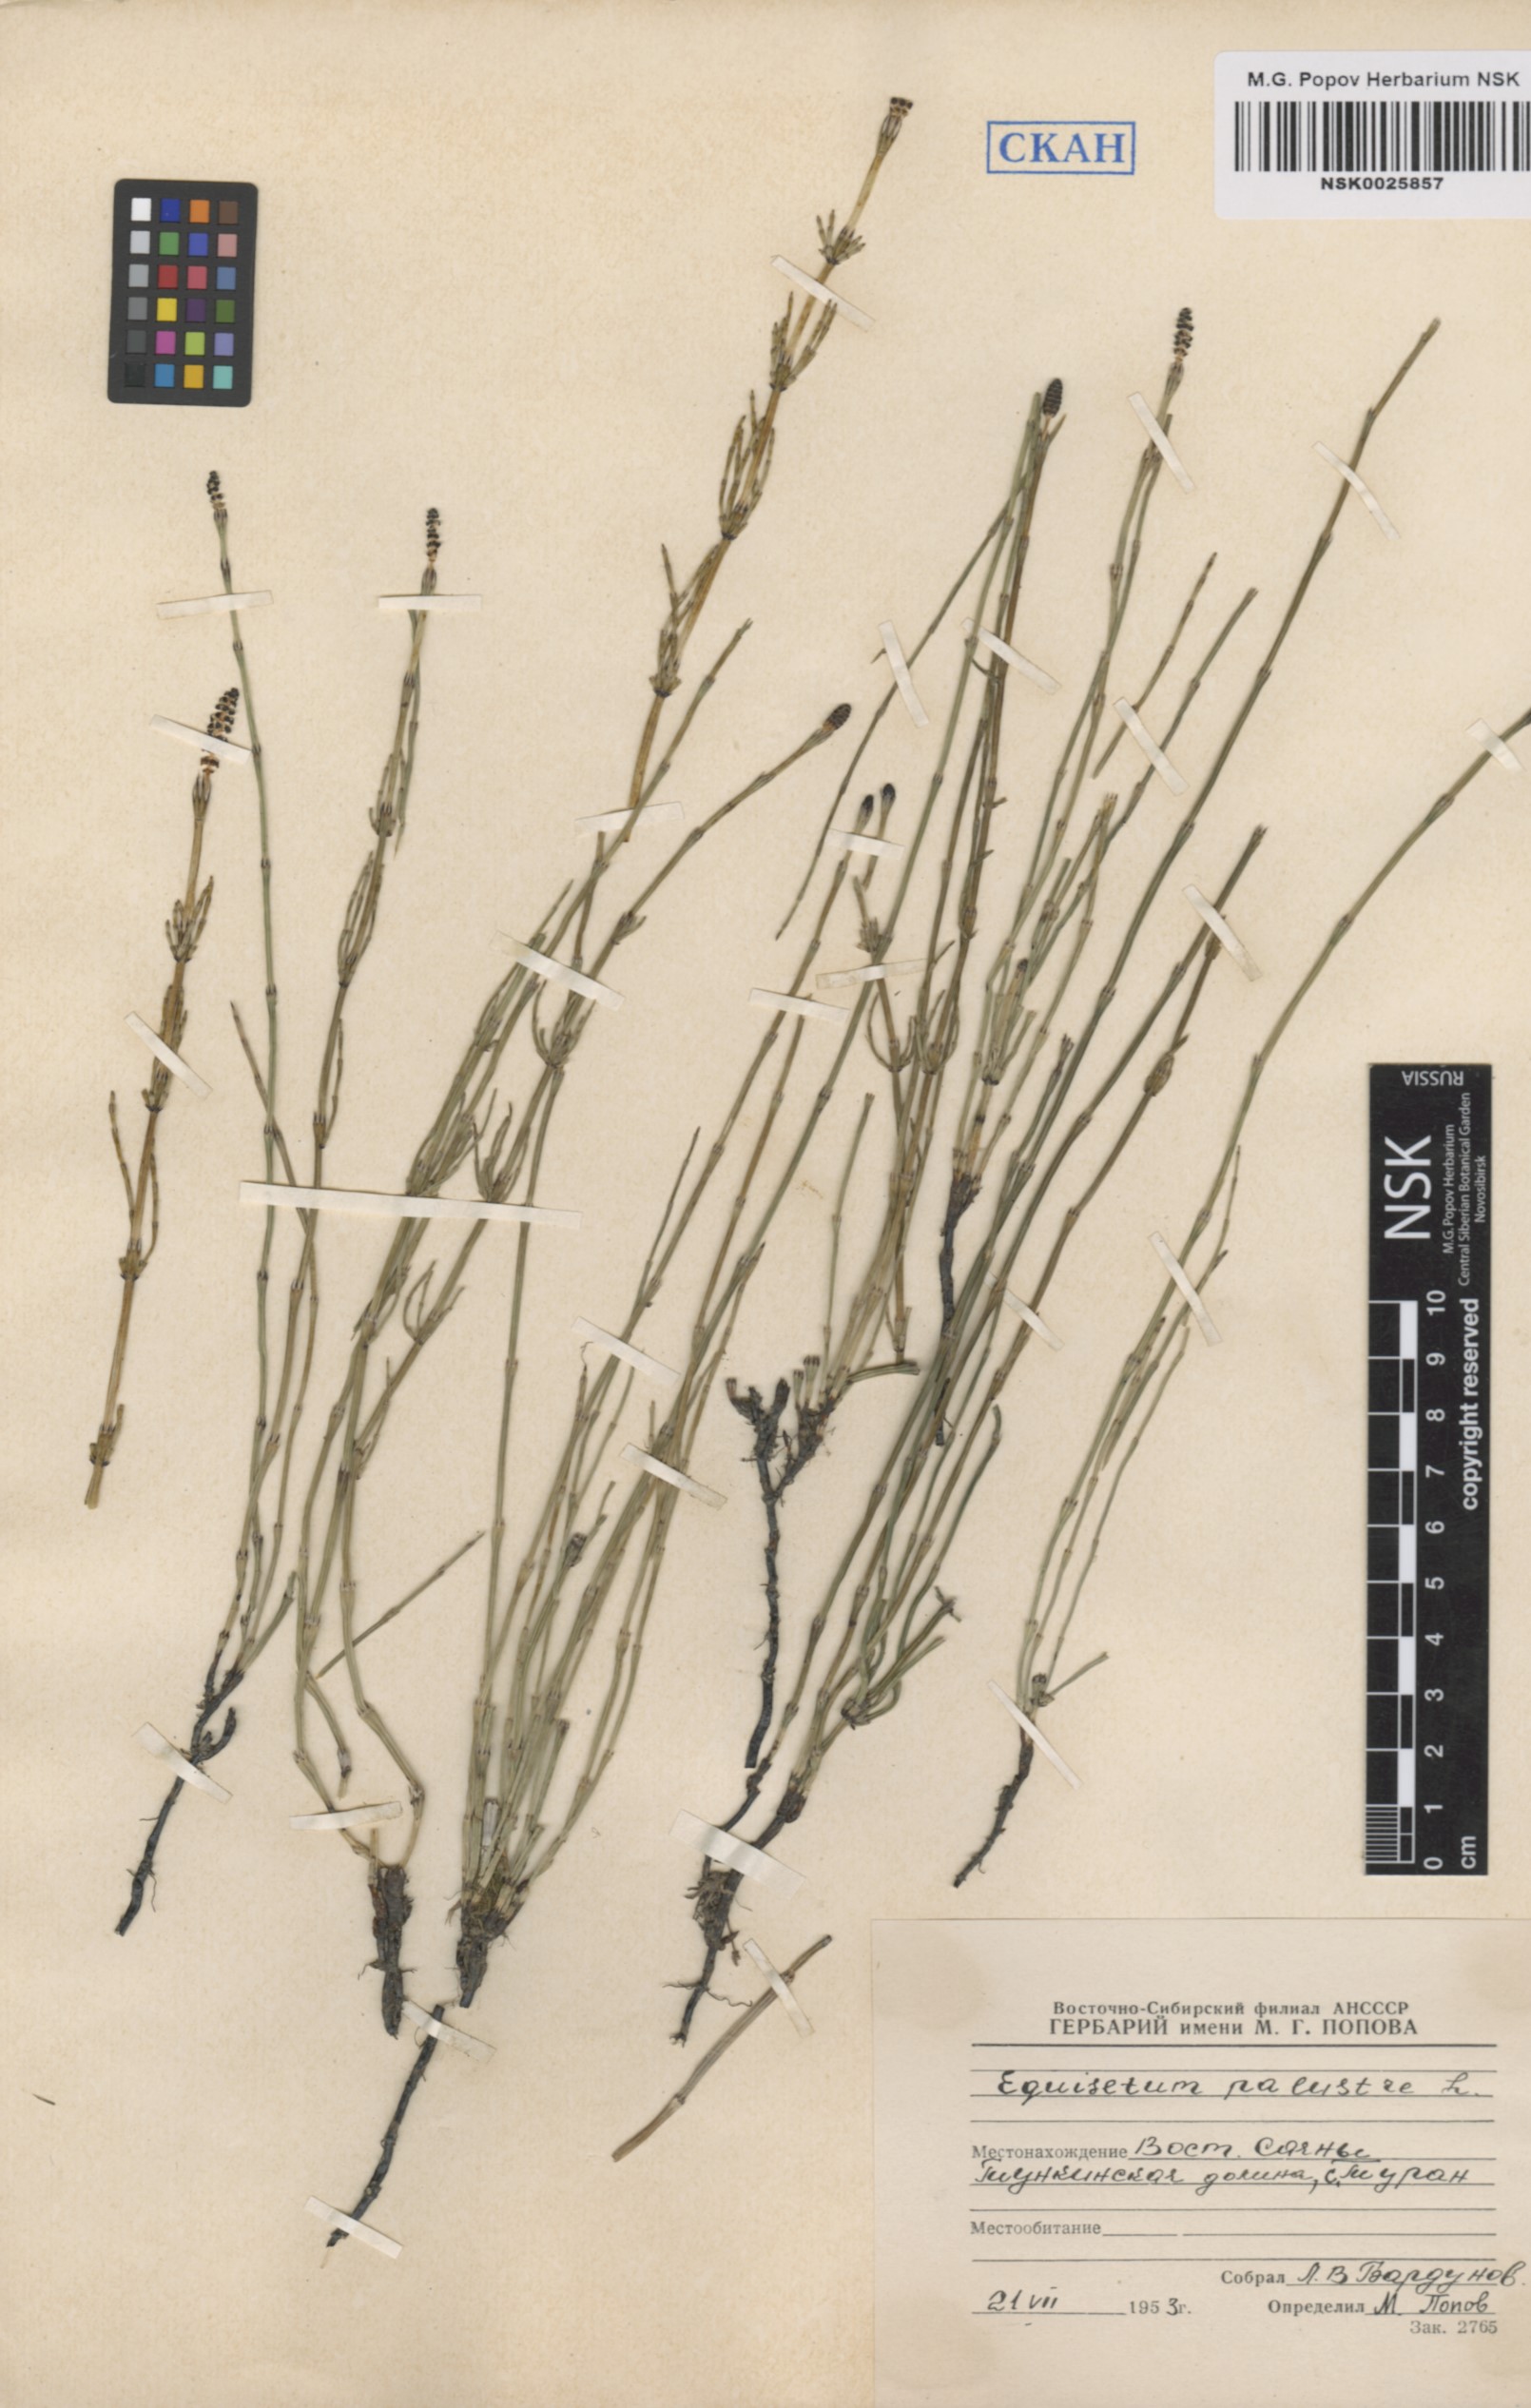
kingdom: Plantae
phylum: Tracheophyta
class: Polypodiopsida
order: Equisetales
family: Equisetaceae
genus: Equisetum
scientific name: Equisetum palustre
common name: Marsh horsetail
